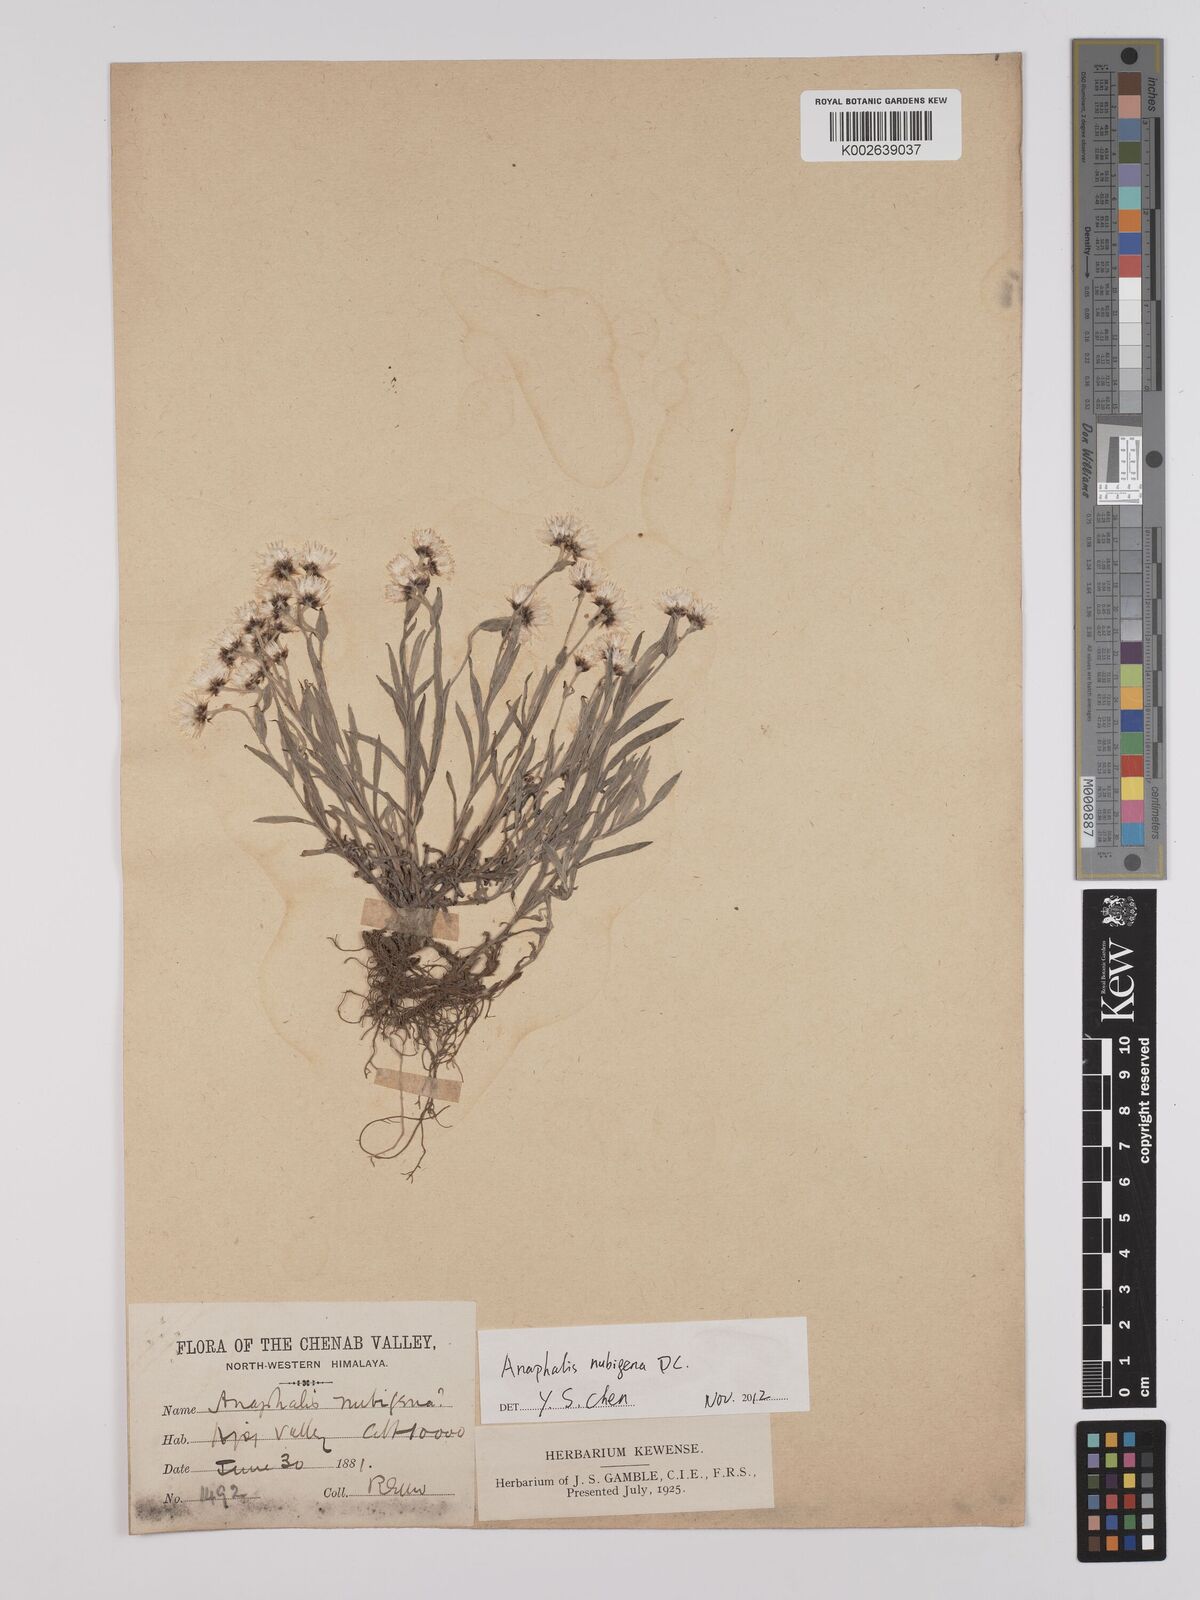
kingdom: Plantae
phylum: Tracheophyta
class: Magnoliopsida
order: Asterales
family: Asteraceae
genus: Anaphalis
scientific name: Anaphalis nepalensis
